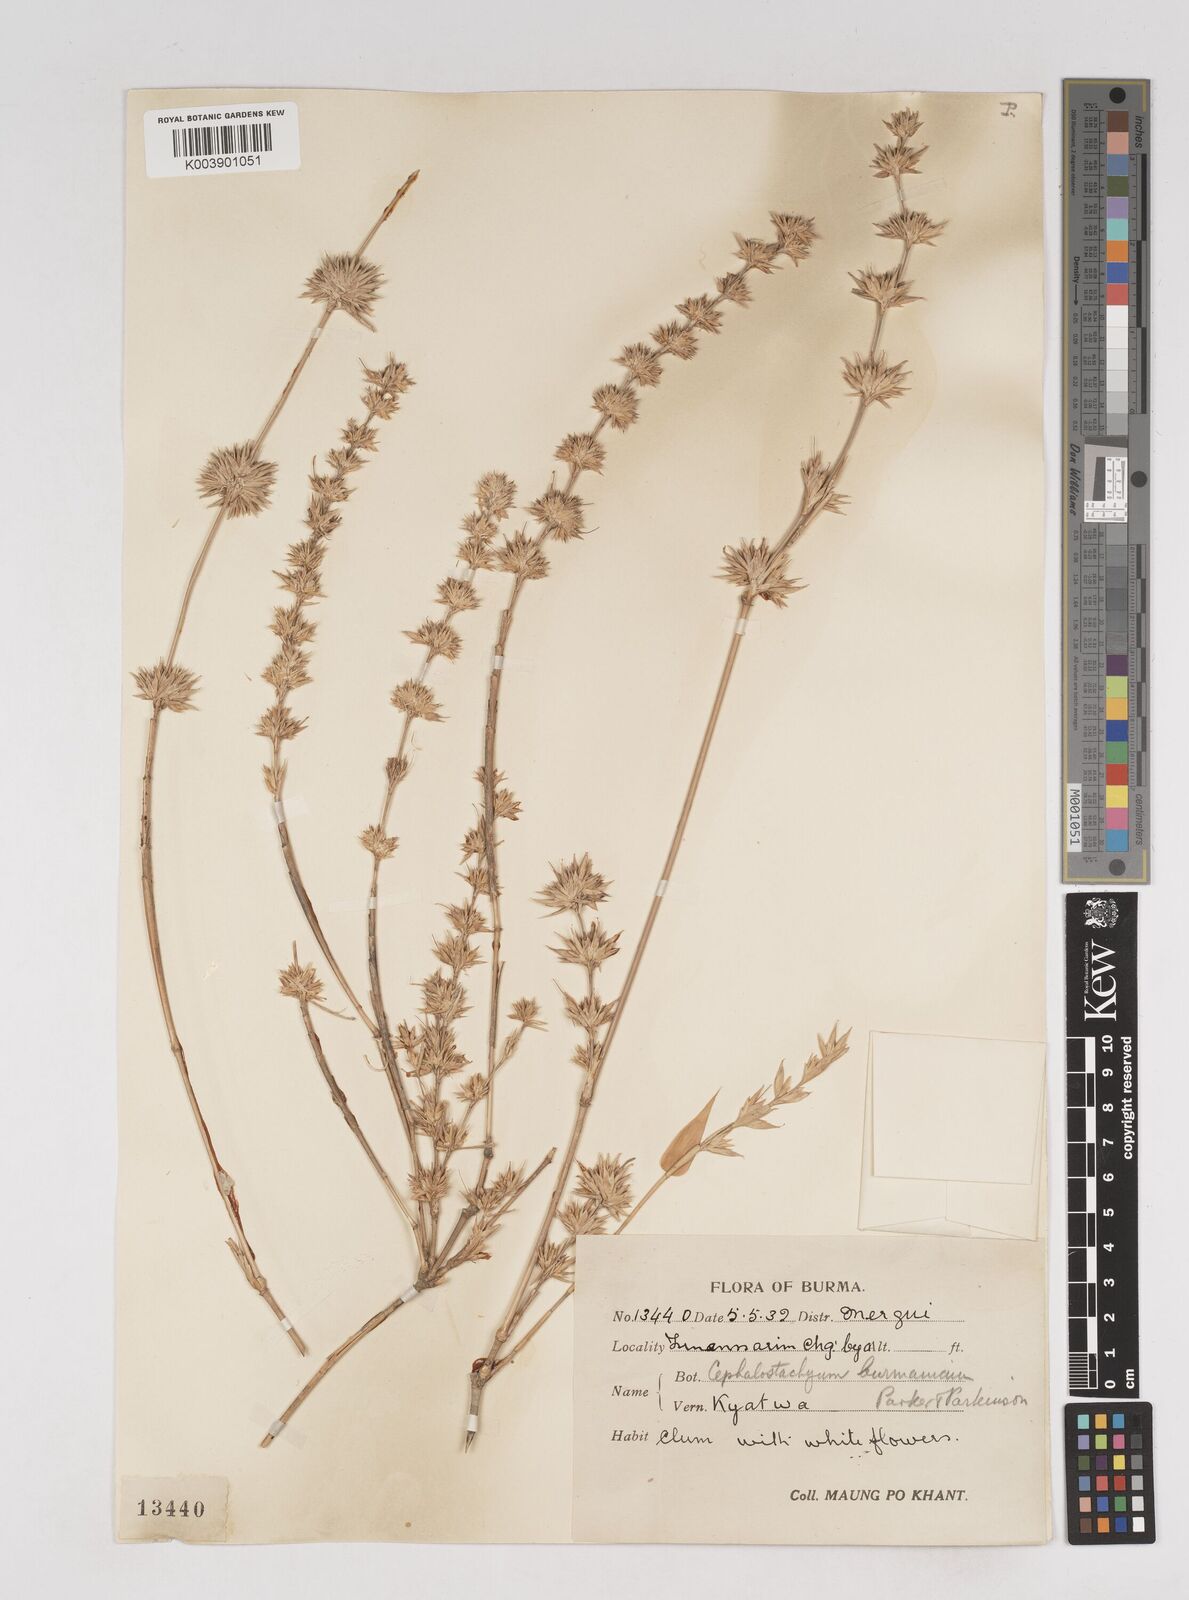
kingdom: Plantae
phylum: Tracheophyta
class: Liliopsida
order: Poales
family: Poaceae
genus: Cephalostachyum
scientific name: Cephalostachyum burmanicum
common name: Burma bambooshrub
